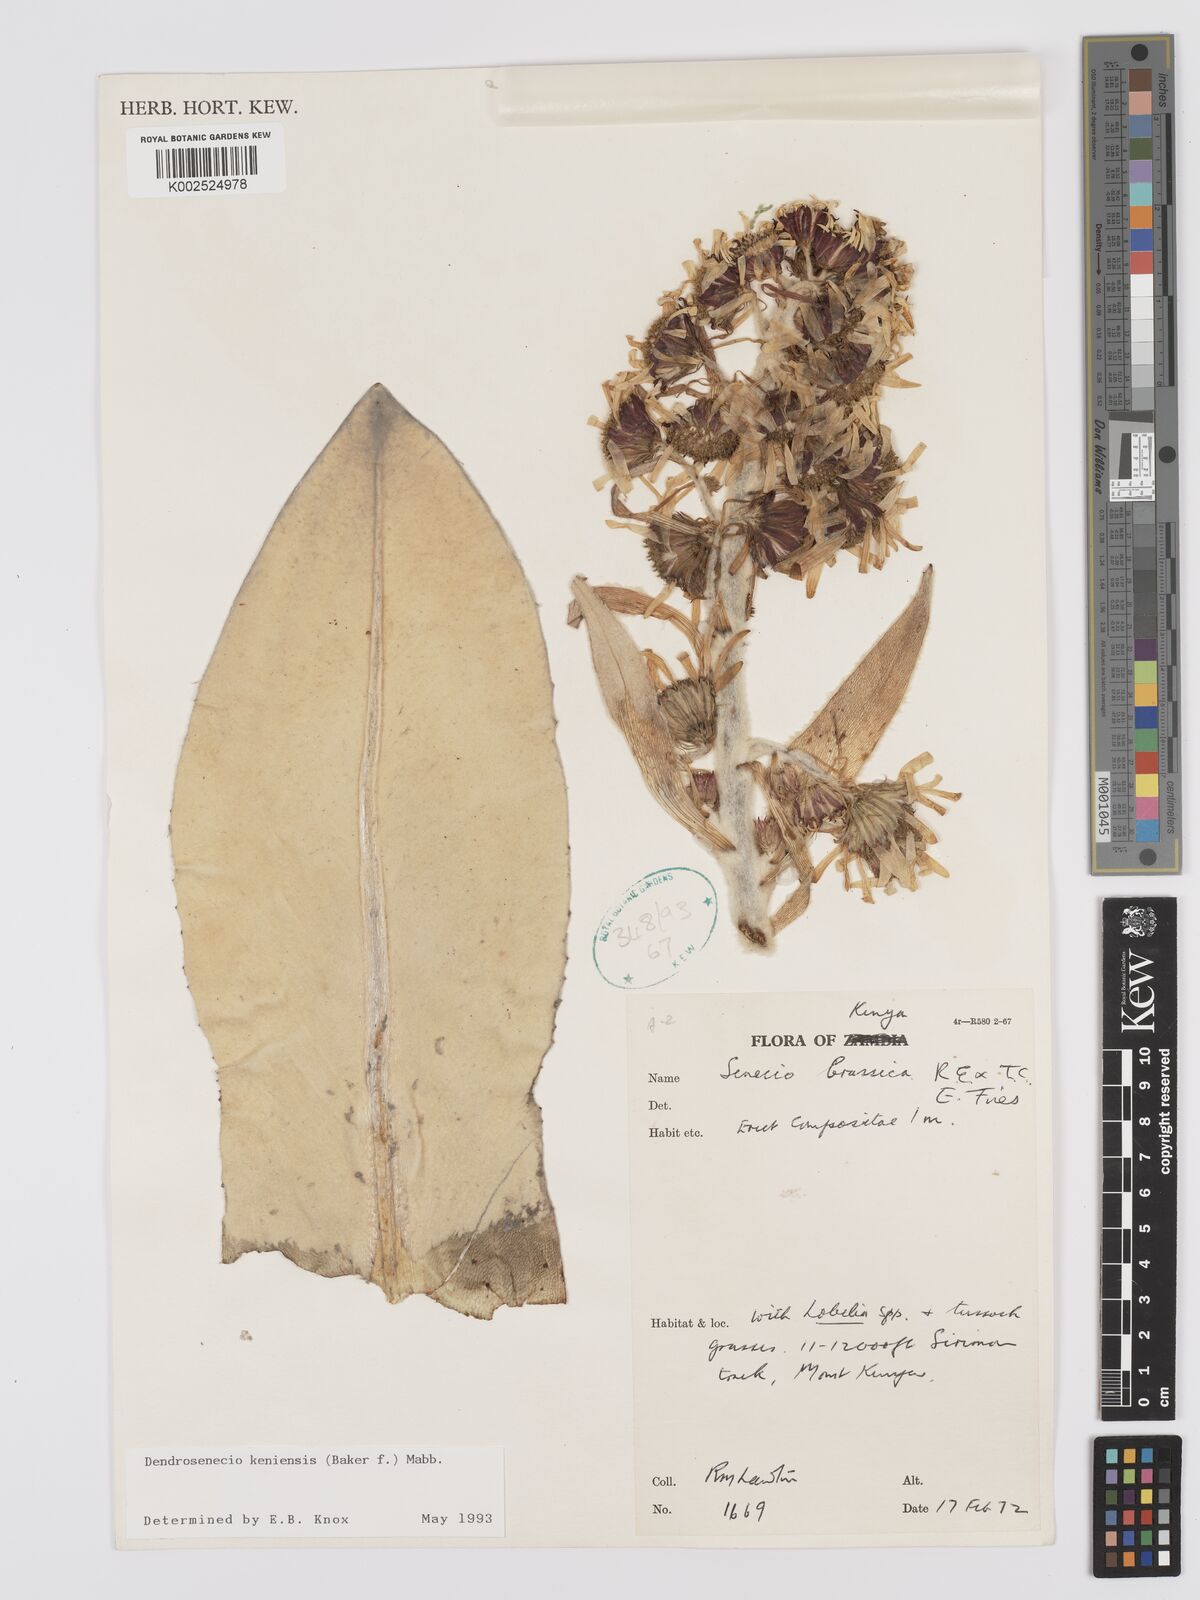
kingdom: Plantae
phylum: Tracheophyta
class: Magnoliopsida
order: Asterales
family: Asteraceae
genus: Dendrosenecio
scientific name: Dendrosenecio keniensis
